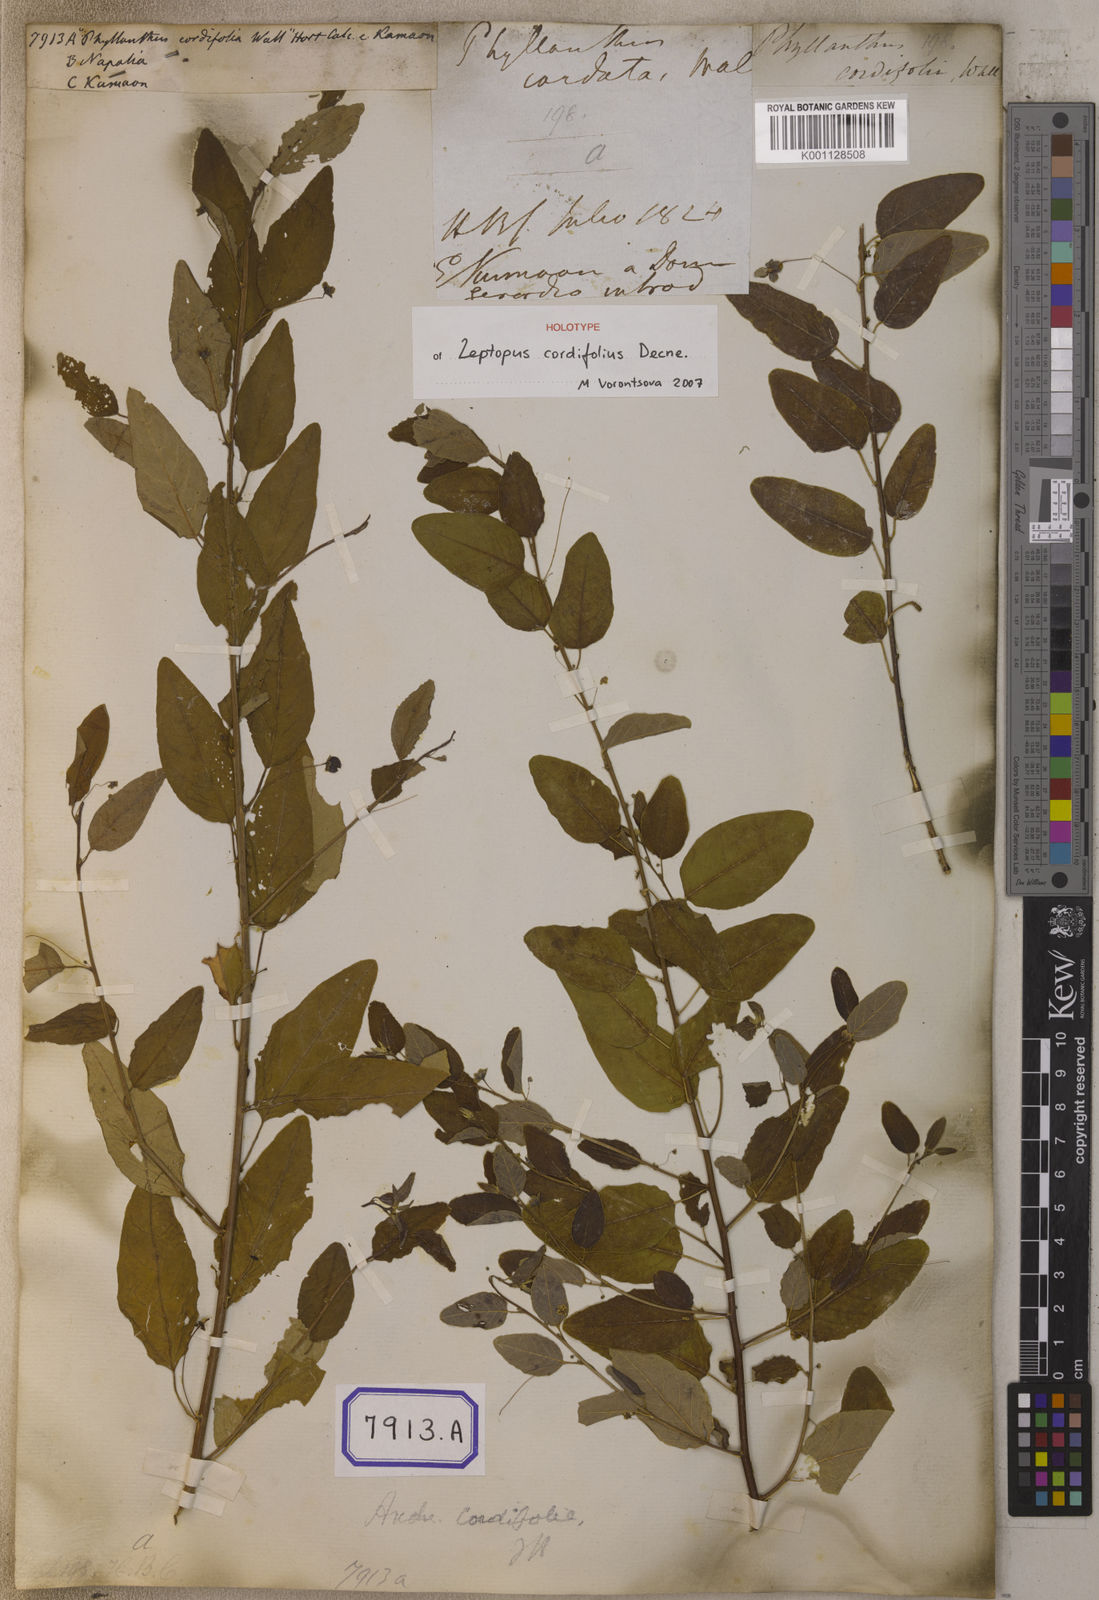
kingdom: Plantae
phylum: Tracheophyta
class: Magnoliopsida
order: Malpighiales
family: Euphorbiaceae
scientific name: Euphorbiaceae
